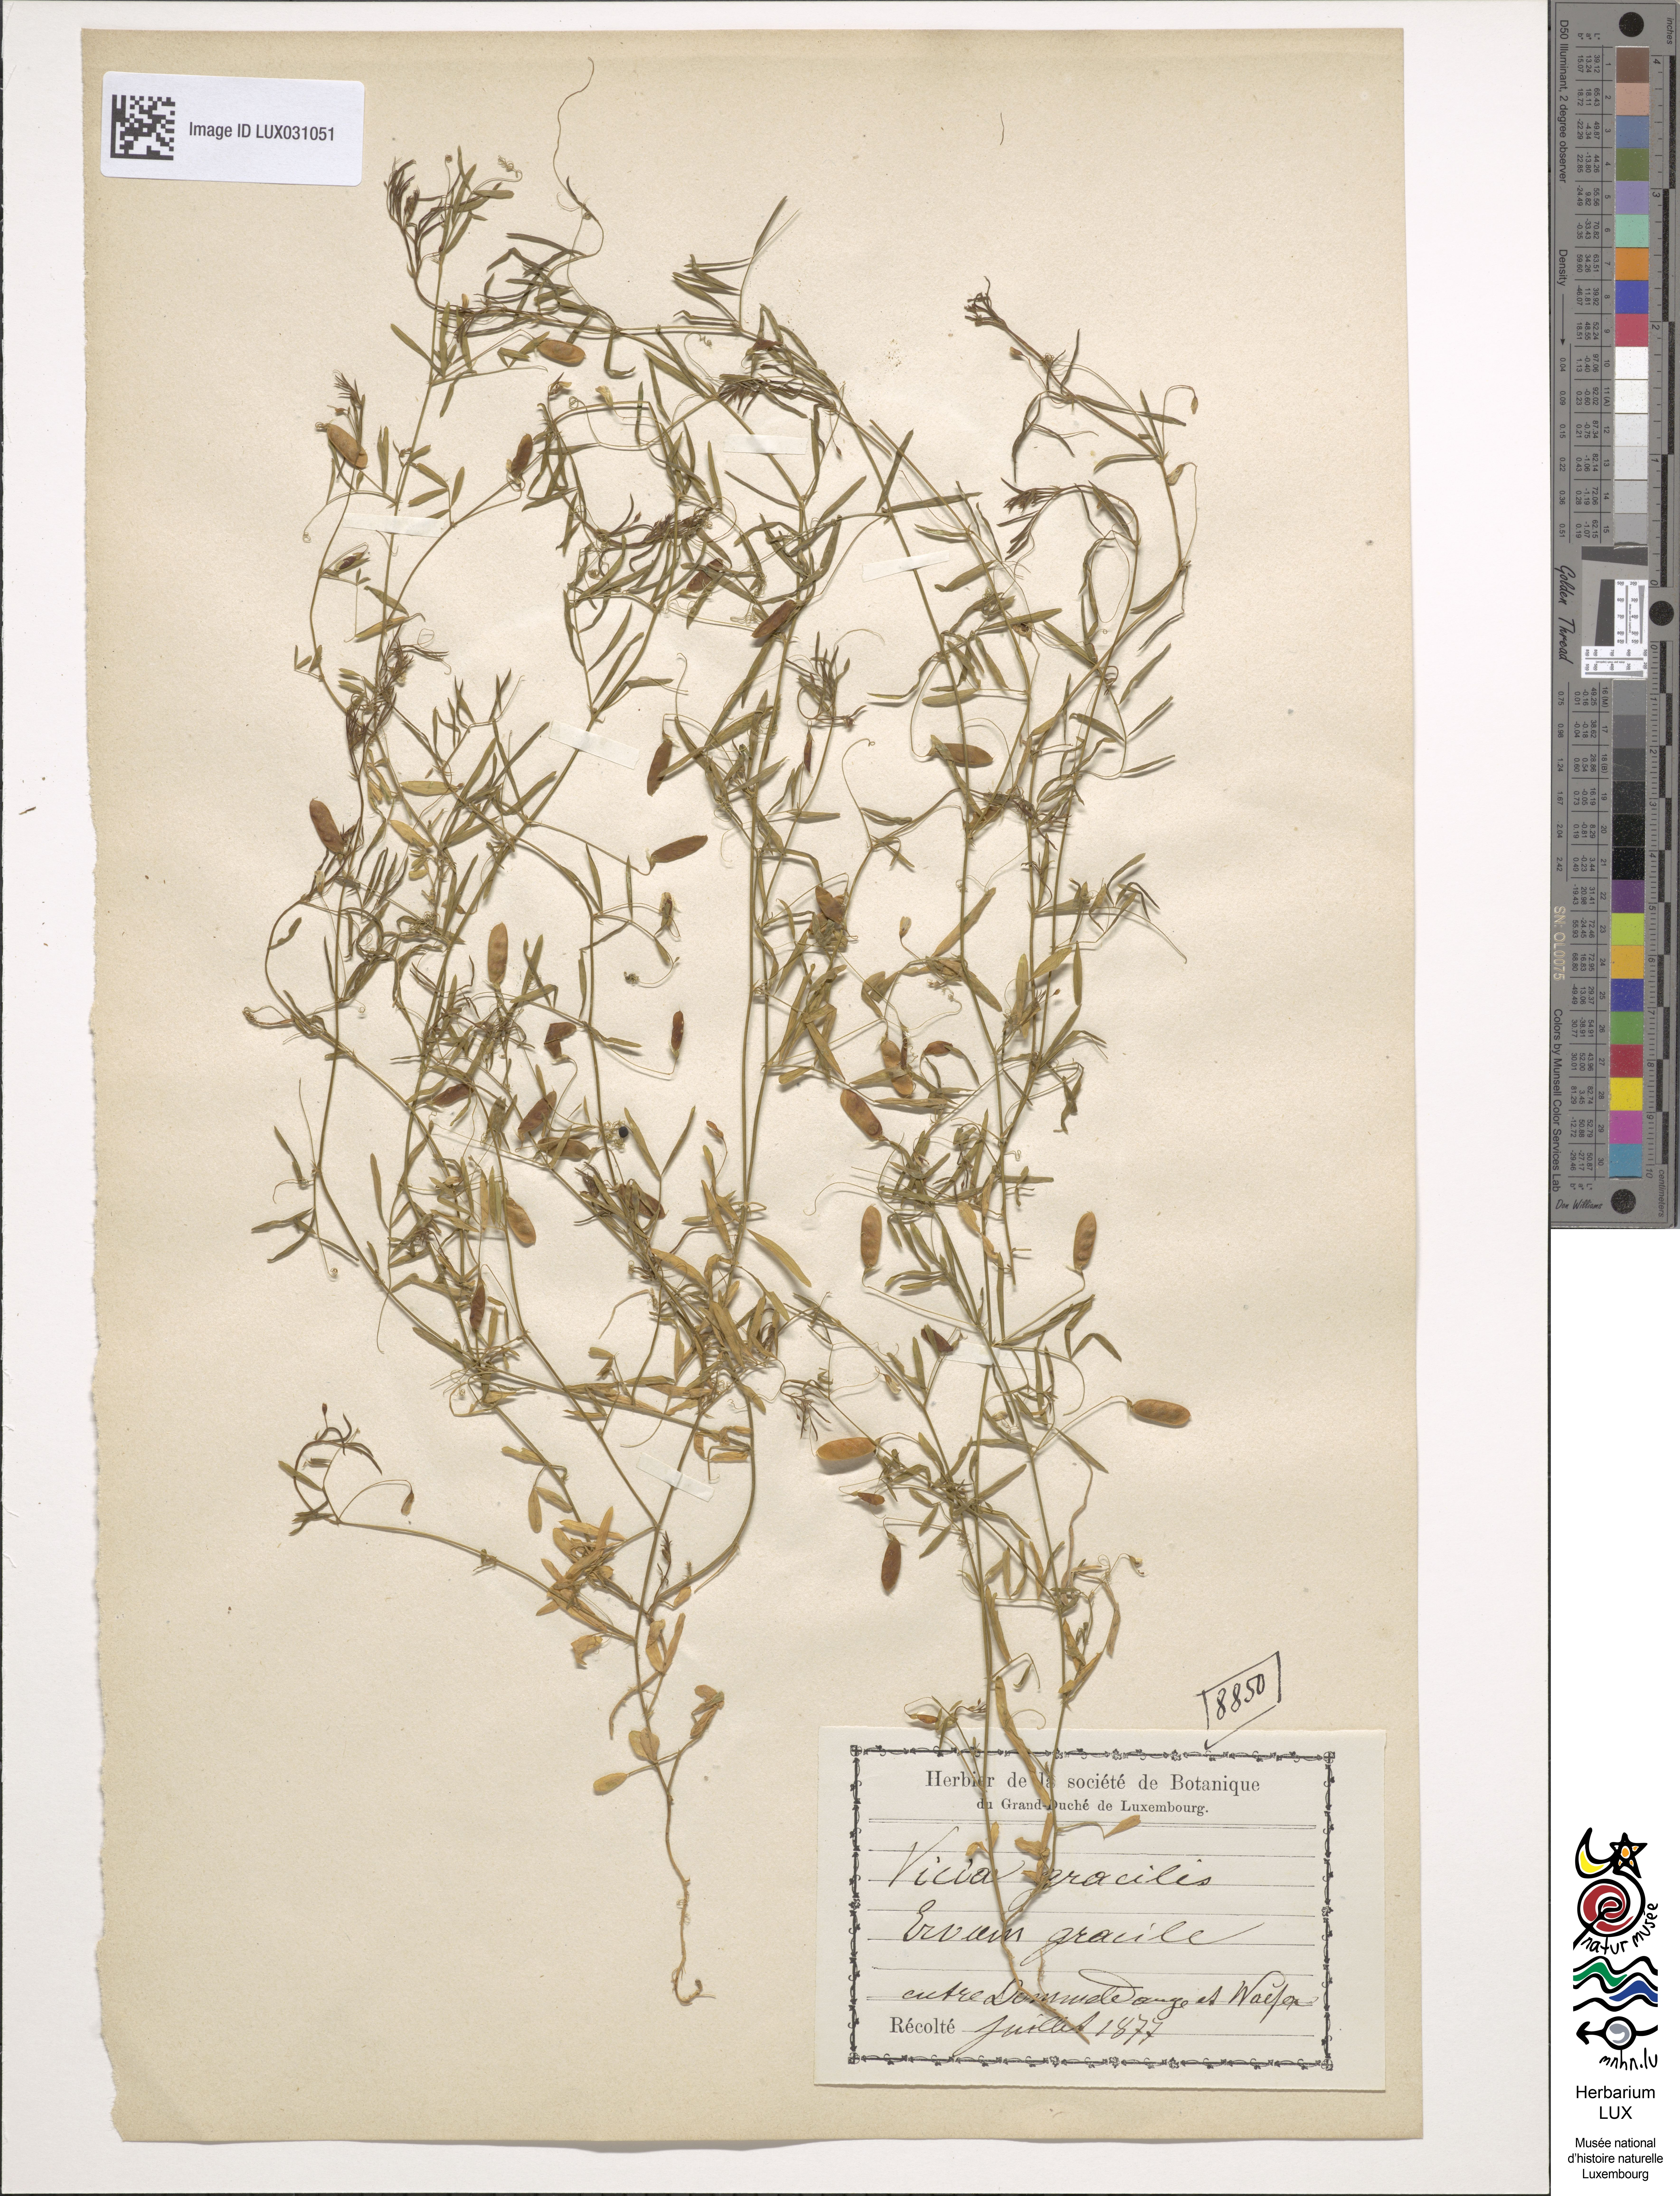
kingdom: Plantae
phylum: Tracheophyta
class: Magnoliopsida
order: Fabales
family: Fabaceae
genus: Vicia
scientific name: Vicia parviflora
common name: Slender tare
